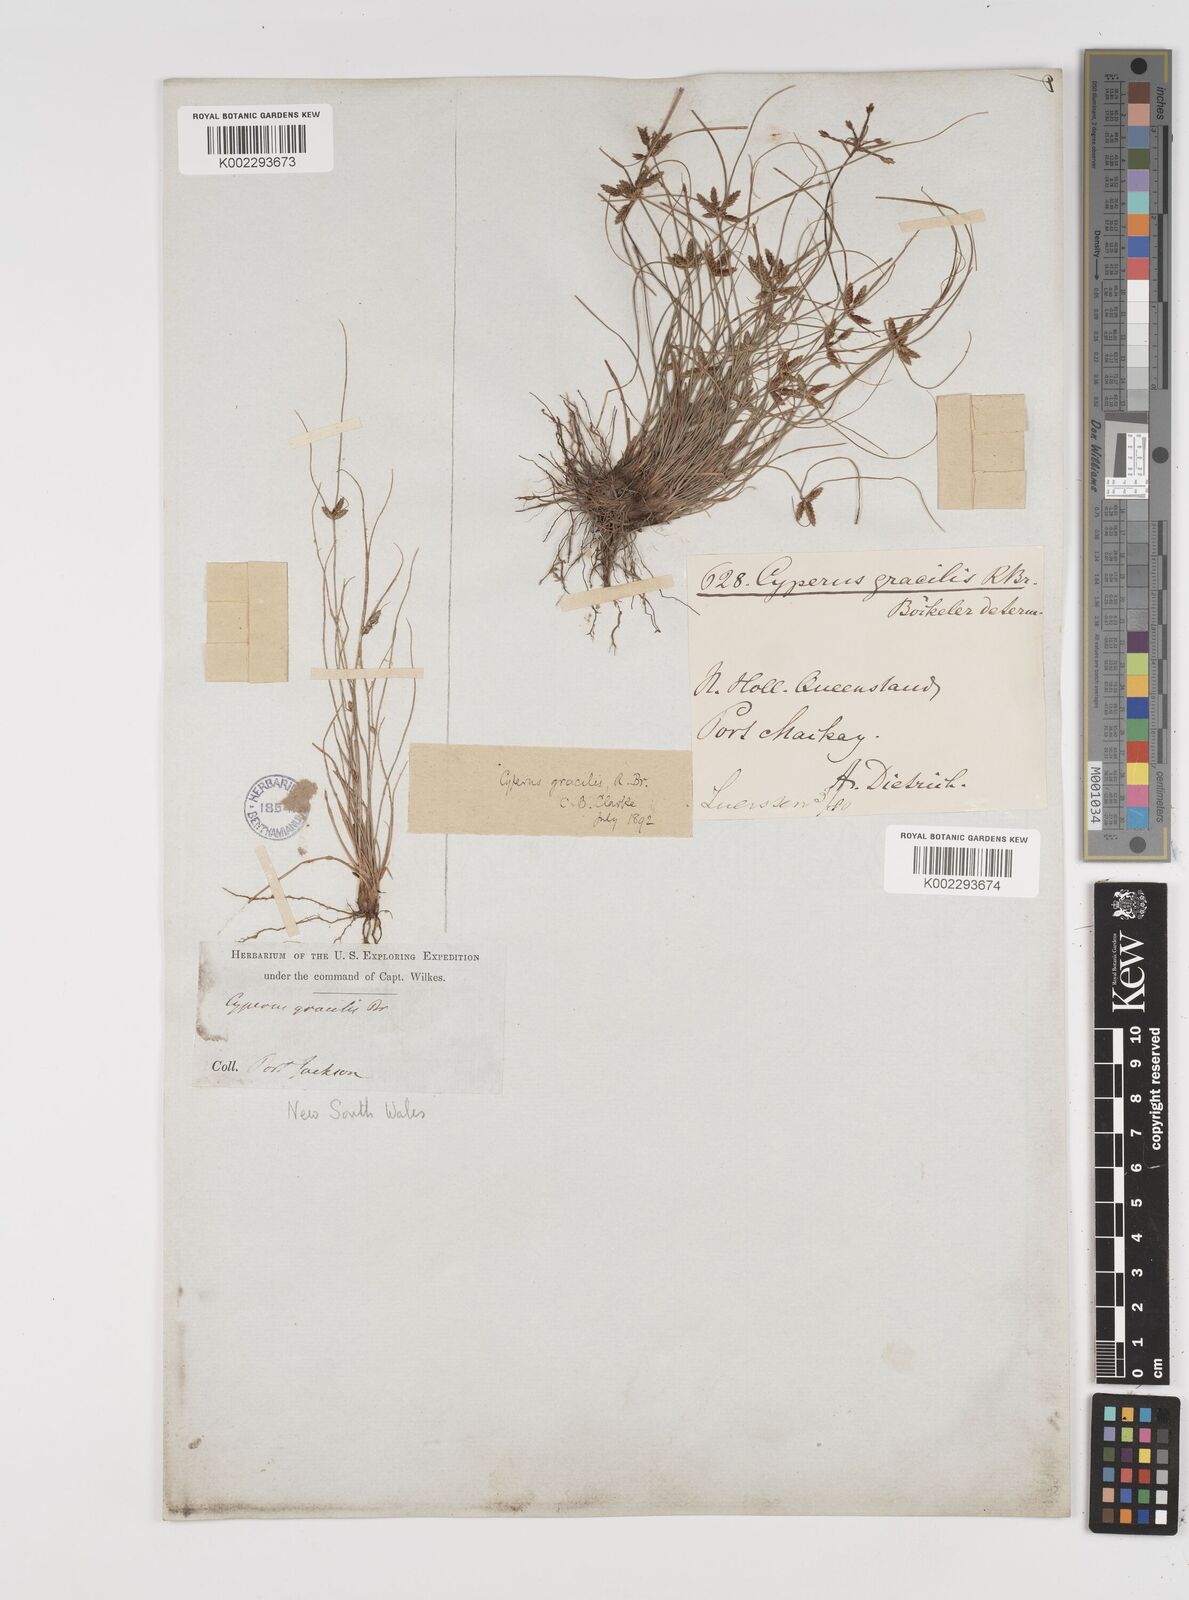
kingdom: Plantae
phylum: Tracheophyta
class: Liliopsida
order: Poales
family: Cyperaceae
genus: Cyperus
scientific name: Cyperus gracilis
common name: Slimjim flatsedge
